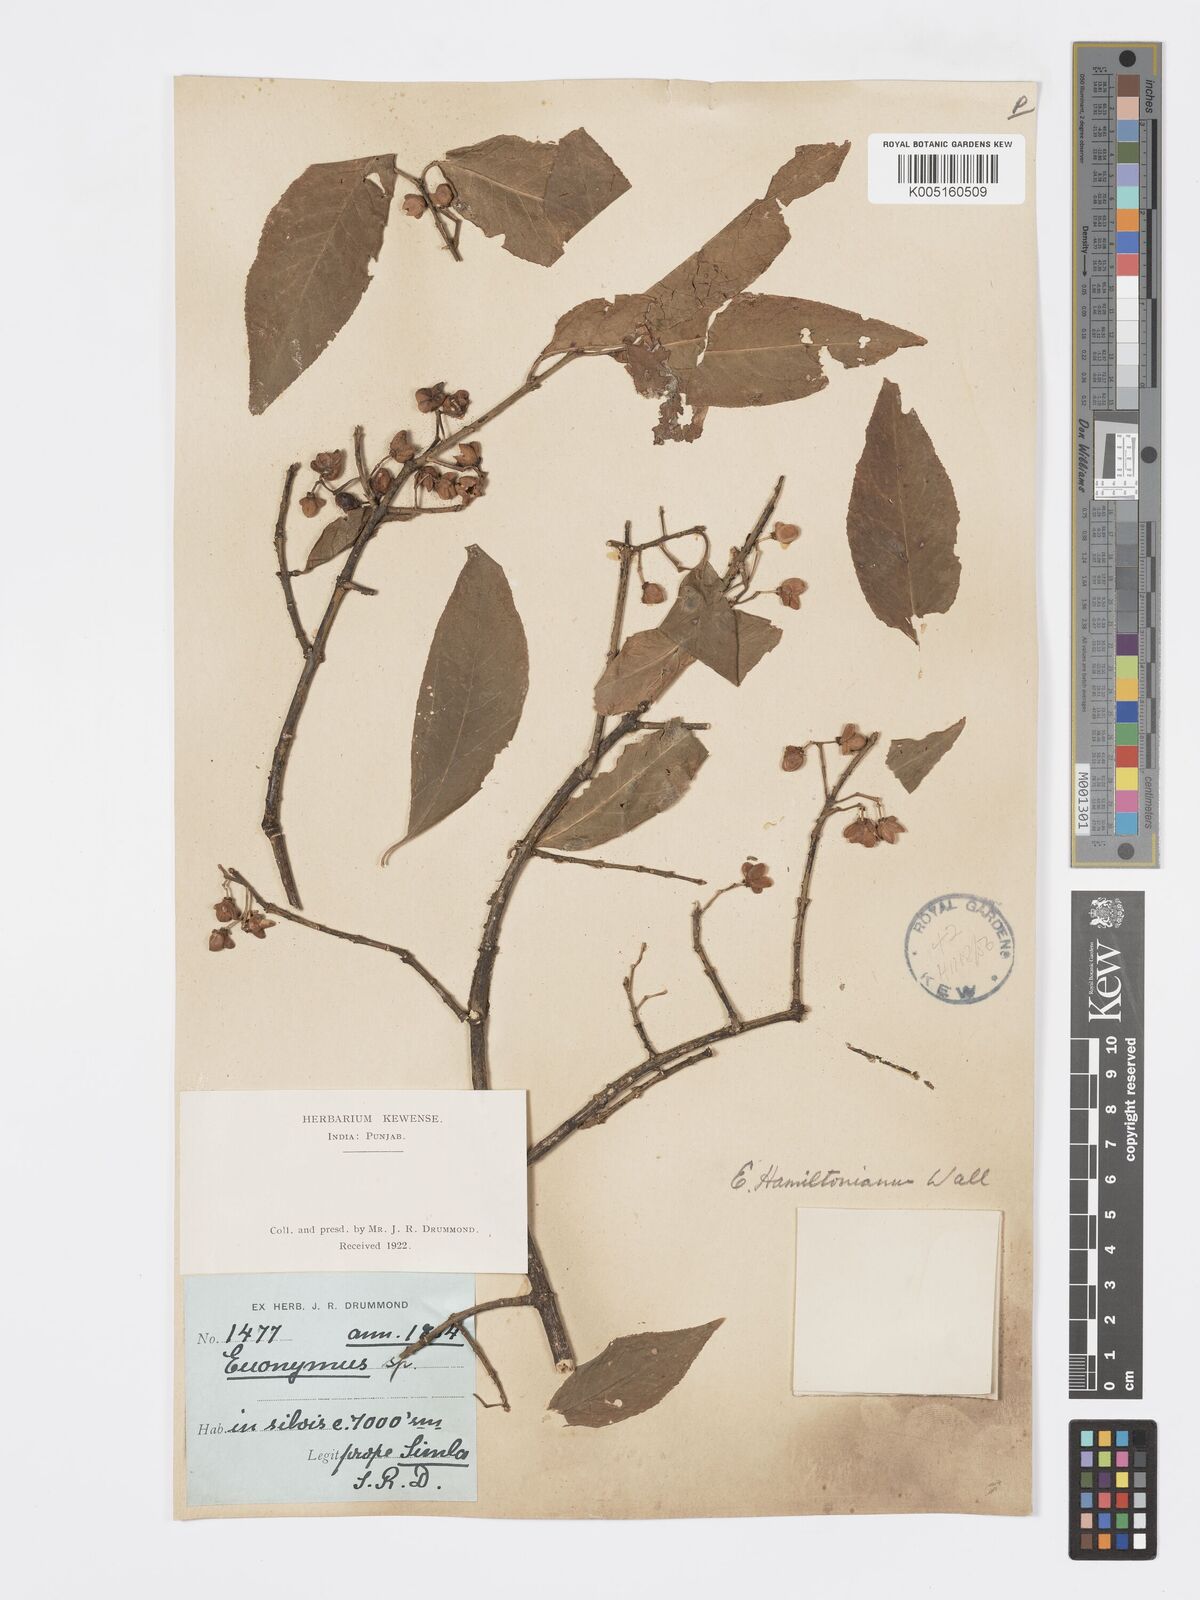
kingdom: Plantae
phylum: Tracheophyta
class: Magnoliopsida
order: Celastrales
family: Celastraceae
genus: Euonymus
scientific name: Euonymus
